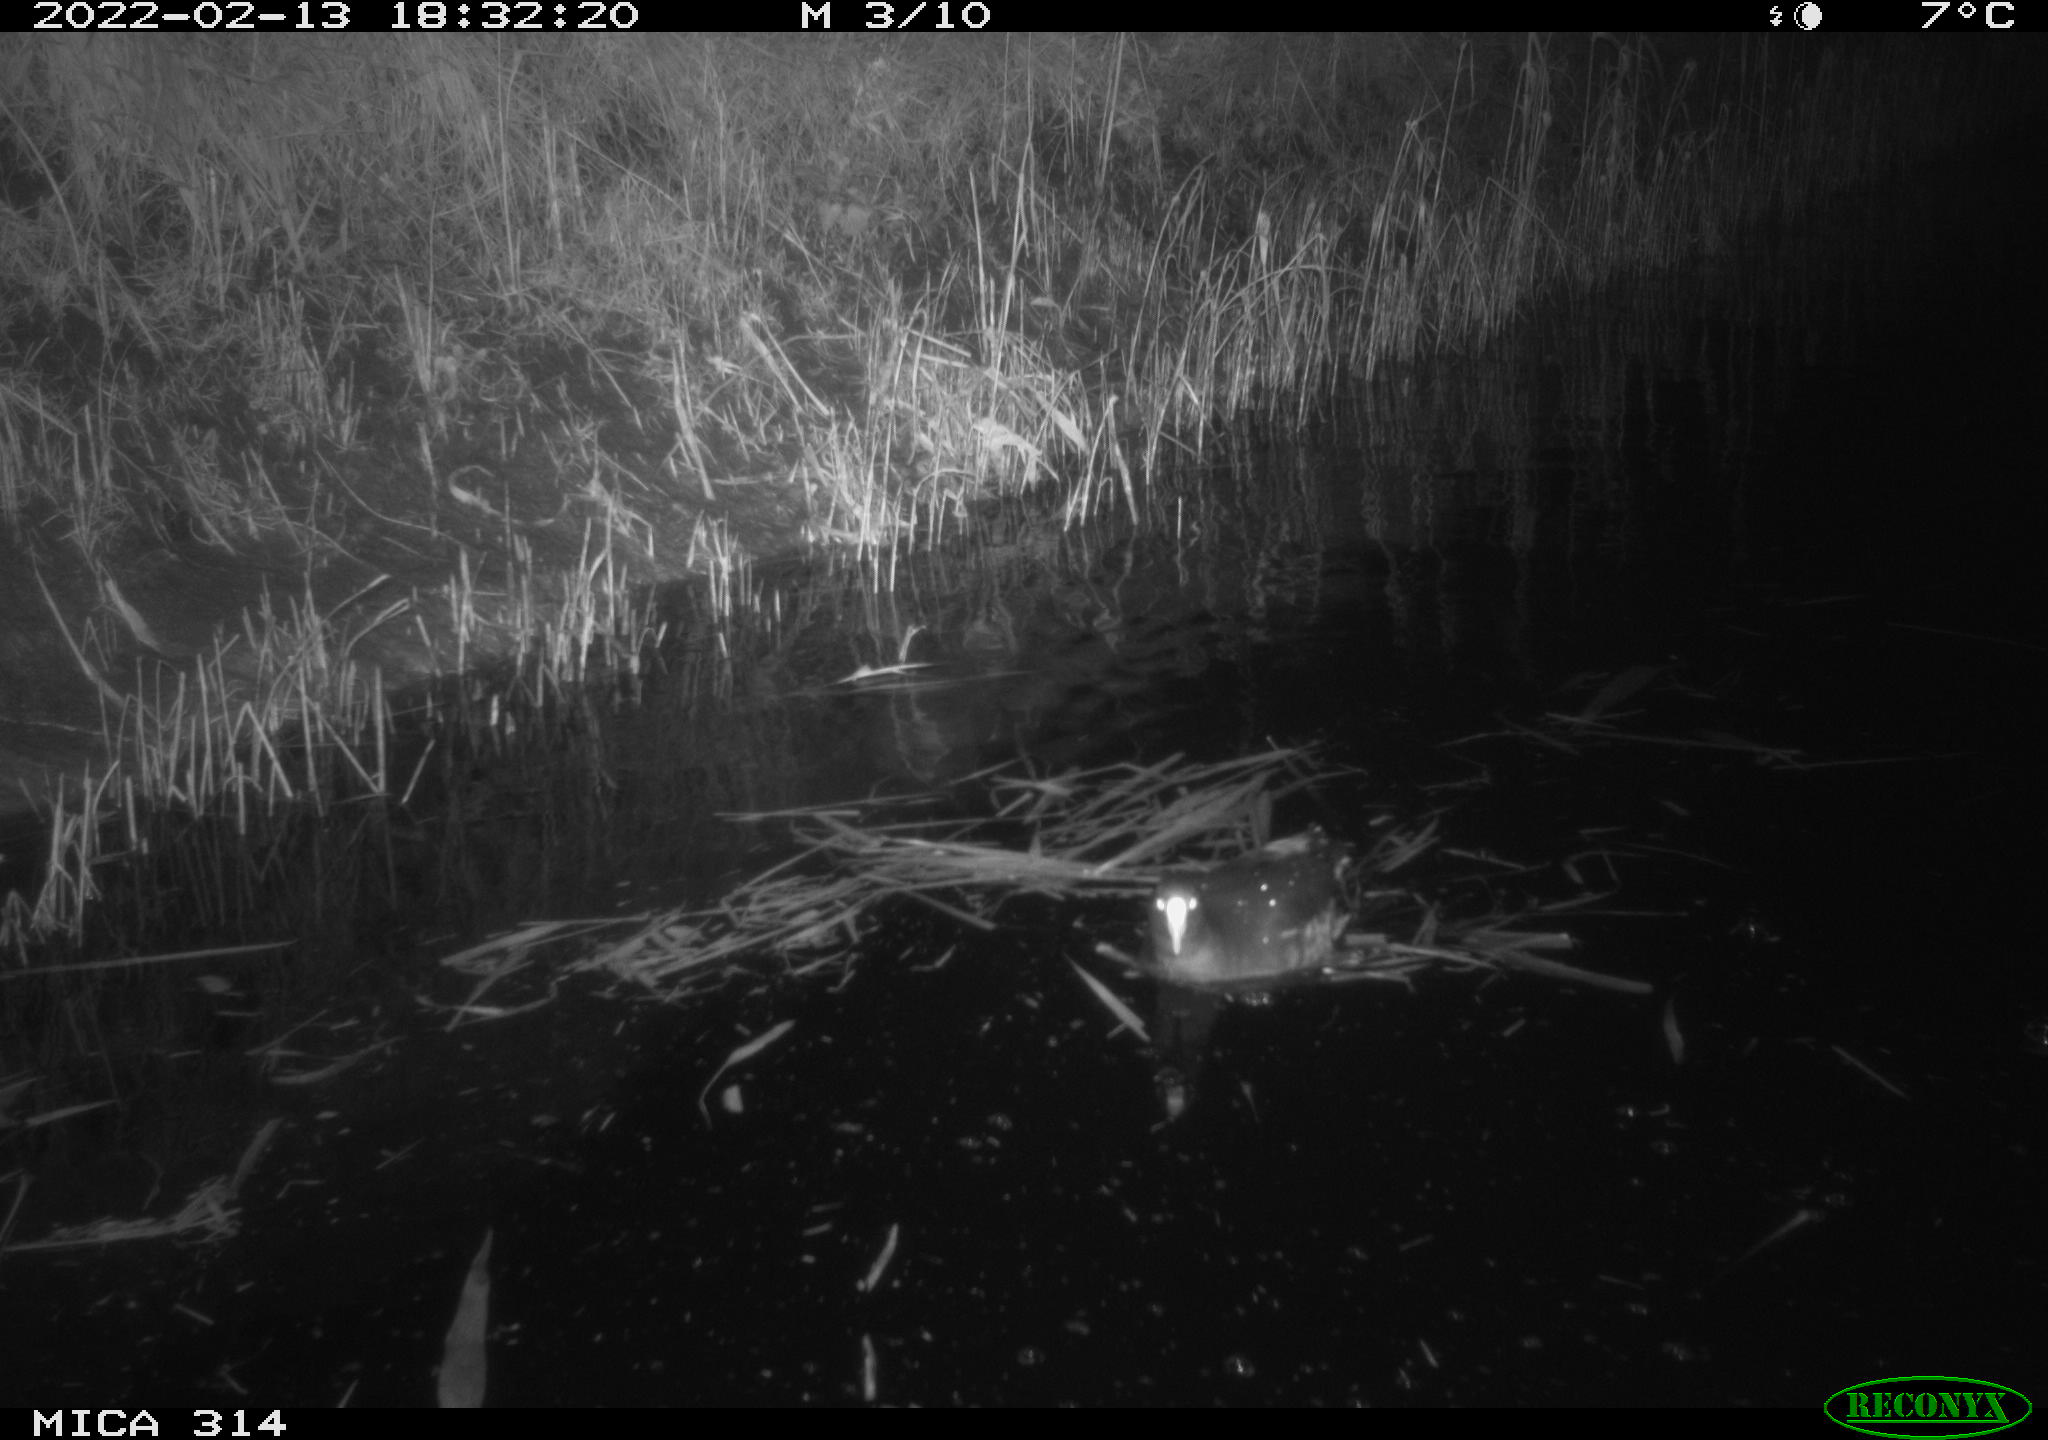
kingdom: Animalia
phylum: Chordata
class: Aves
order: Gruiformes
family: Rallidae
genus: Gallinula
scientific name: Gallinula chloropus
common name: Common moorhen
